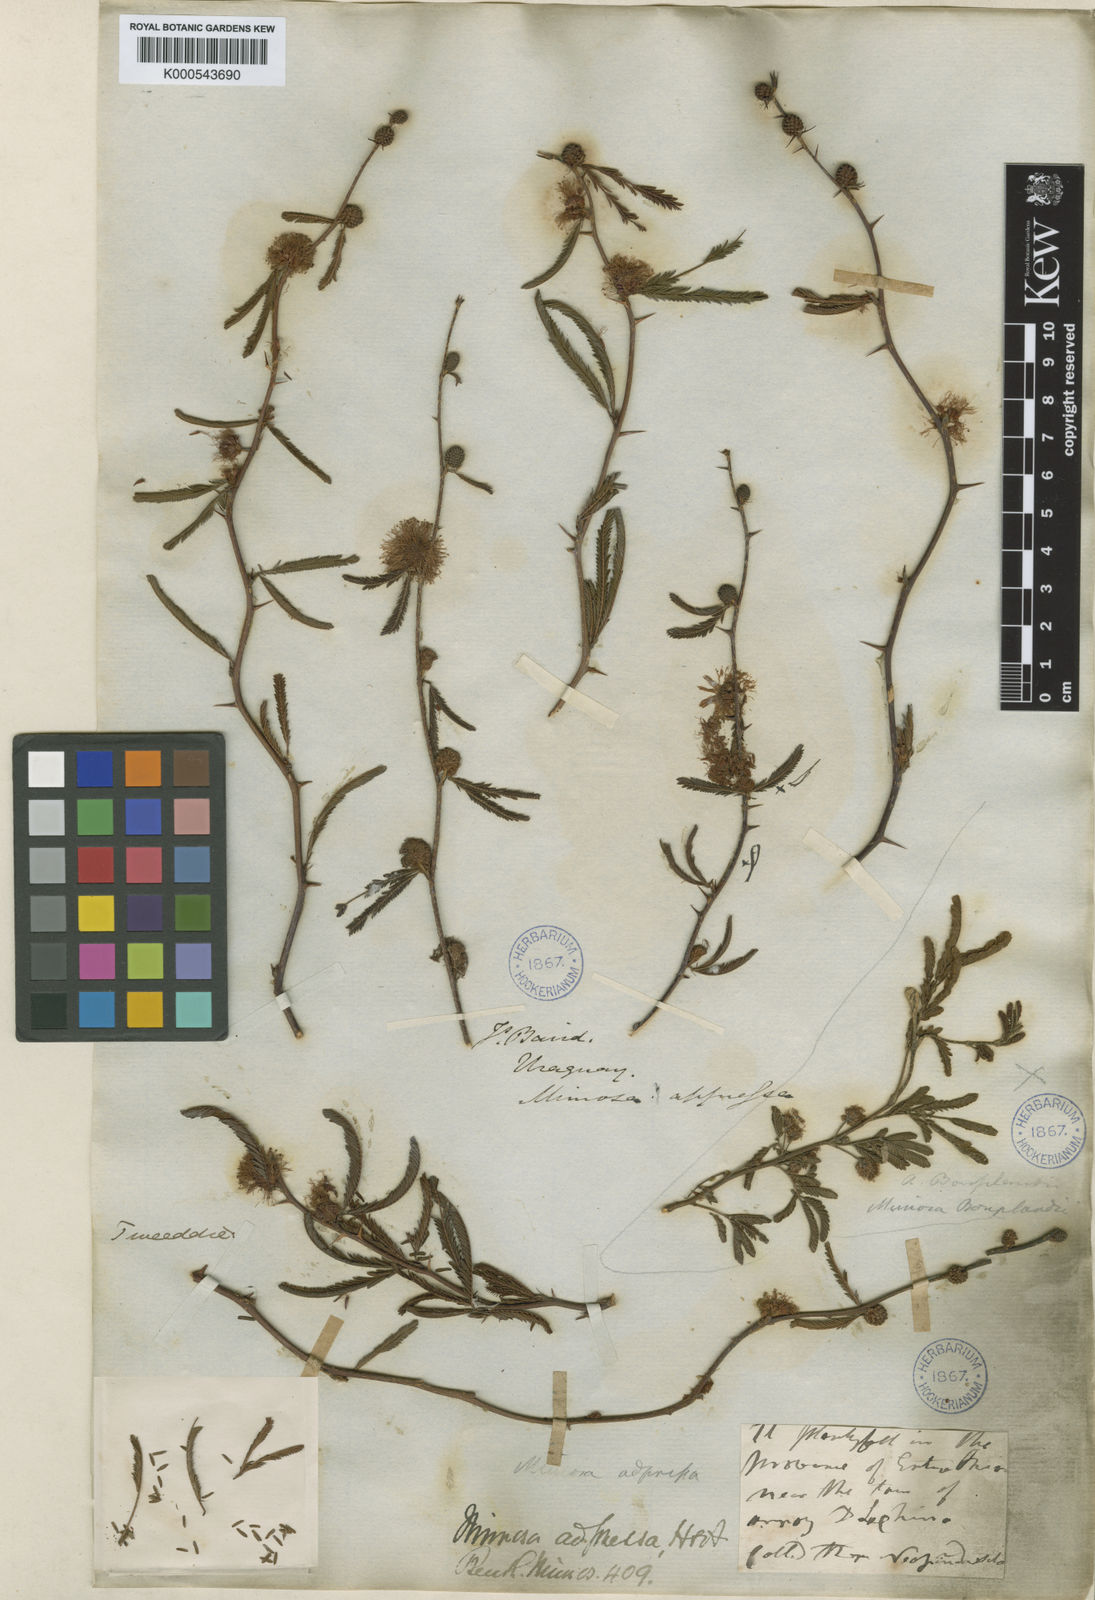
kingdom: Plantae
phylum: Tracheophyta
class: Magnoliopsida
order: Fabales
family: Fabaceae
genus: Mimosa
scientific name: Mimosa adpressa
